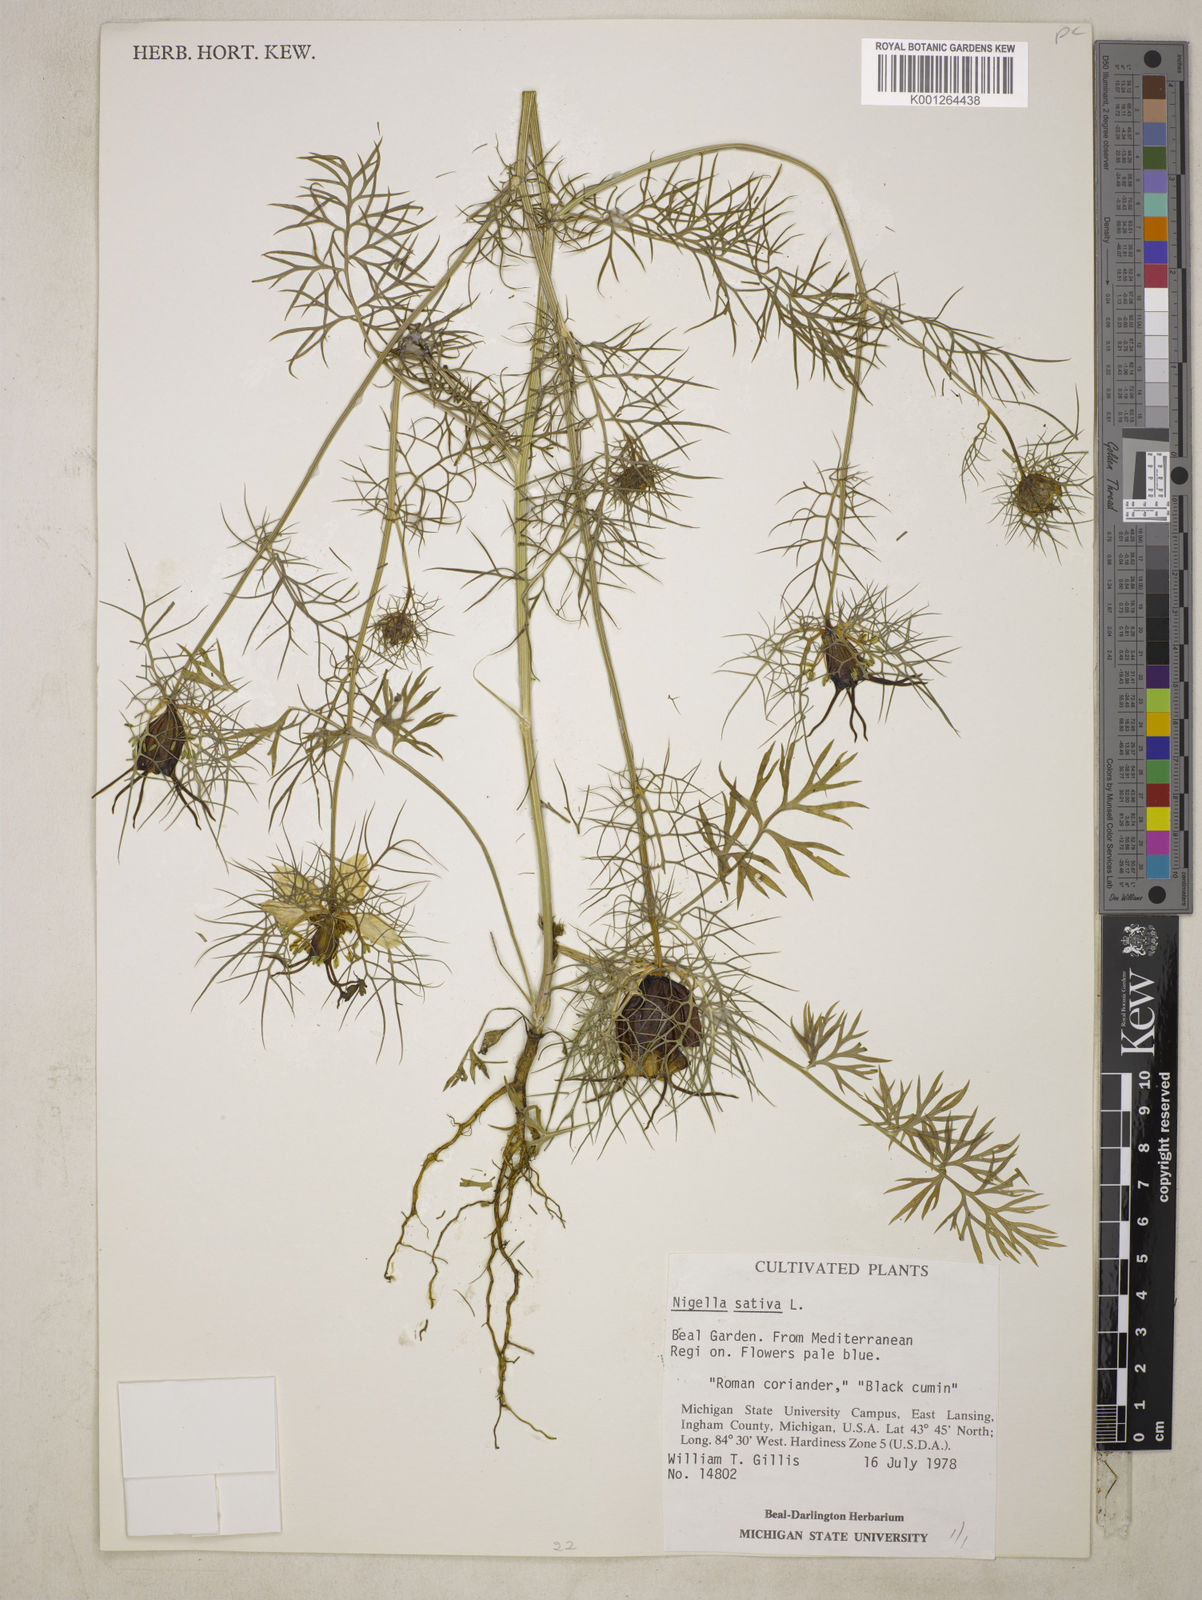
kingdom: Plantae
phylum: Tracheophyta
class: Magnoliopsida
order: Ranunculales
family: Ranunculaceae
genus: Nigella
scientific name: Nigella sativa
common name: Black-cumin
